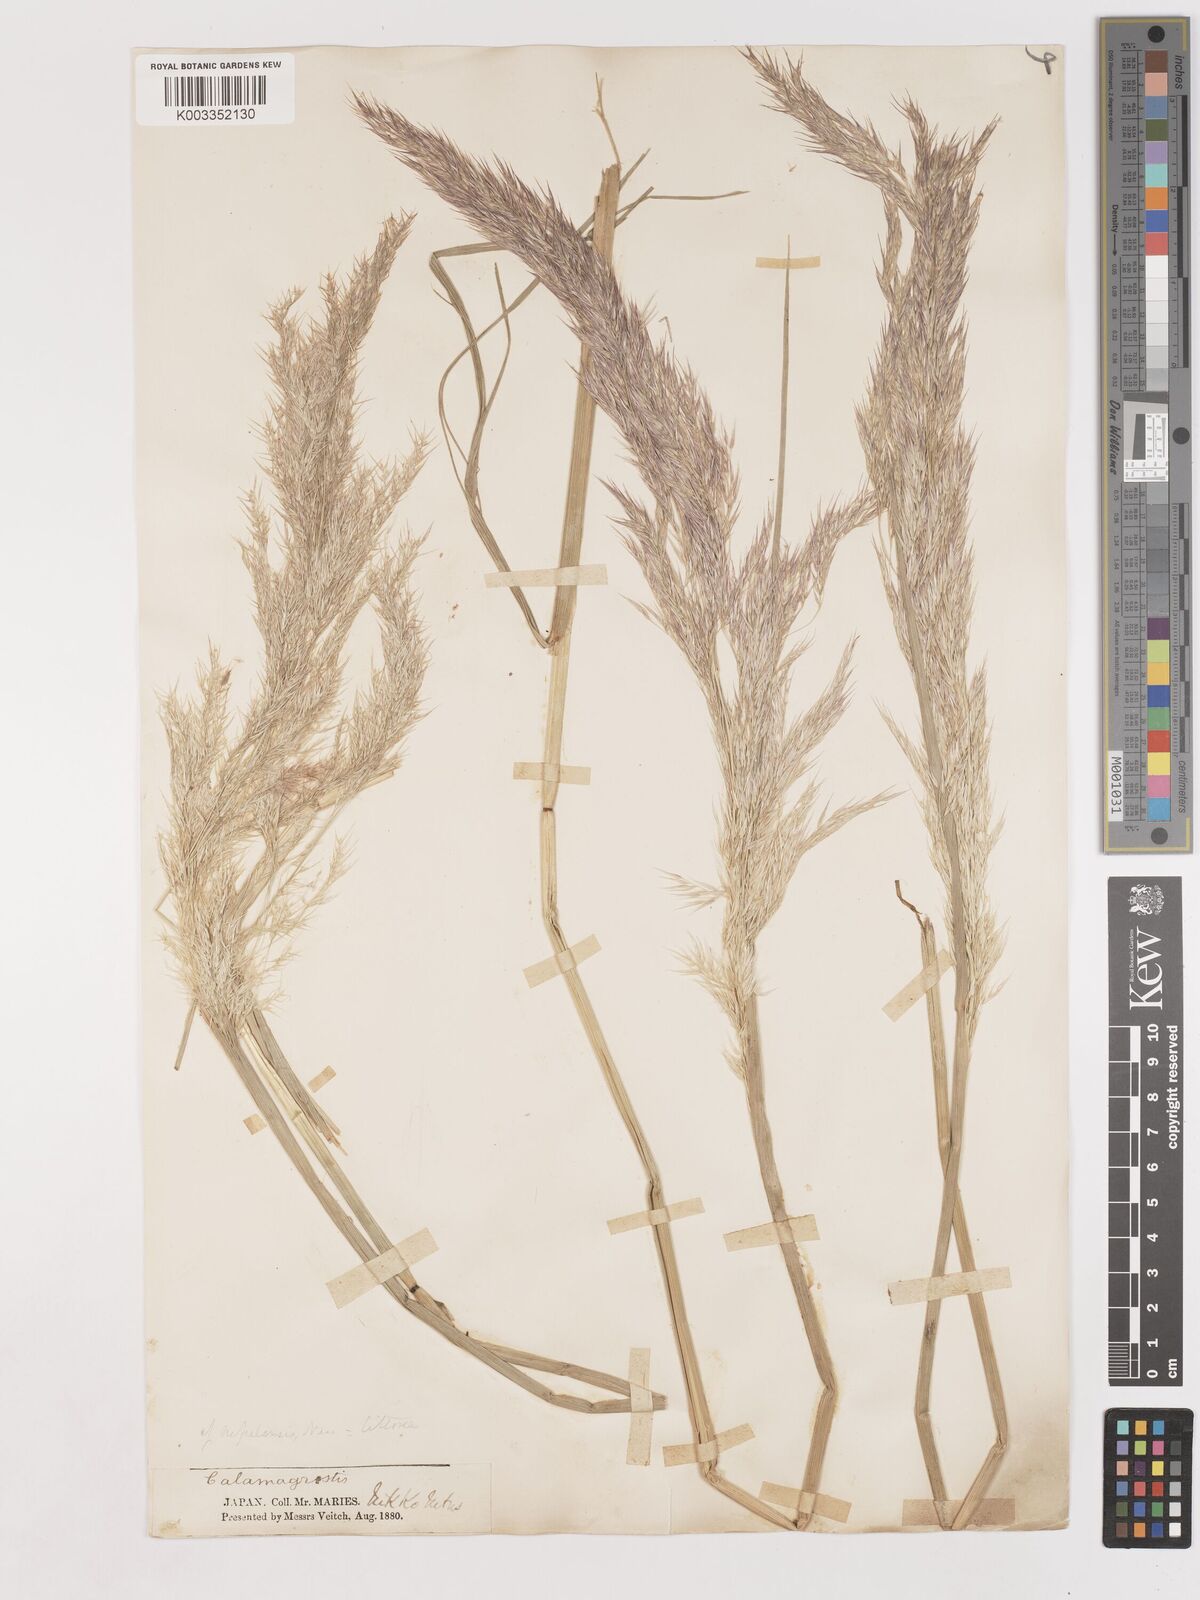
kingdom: Plantae
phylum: Tracheophyta
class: Liliopsida
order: Poales
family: Poaceae
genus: Calamagrostis
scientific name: Calamagrostis pseudophragmites
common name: Coastal small-reed
